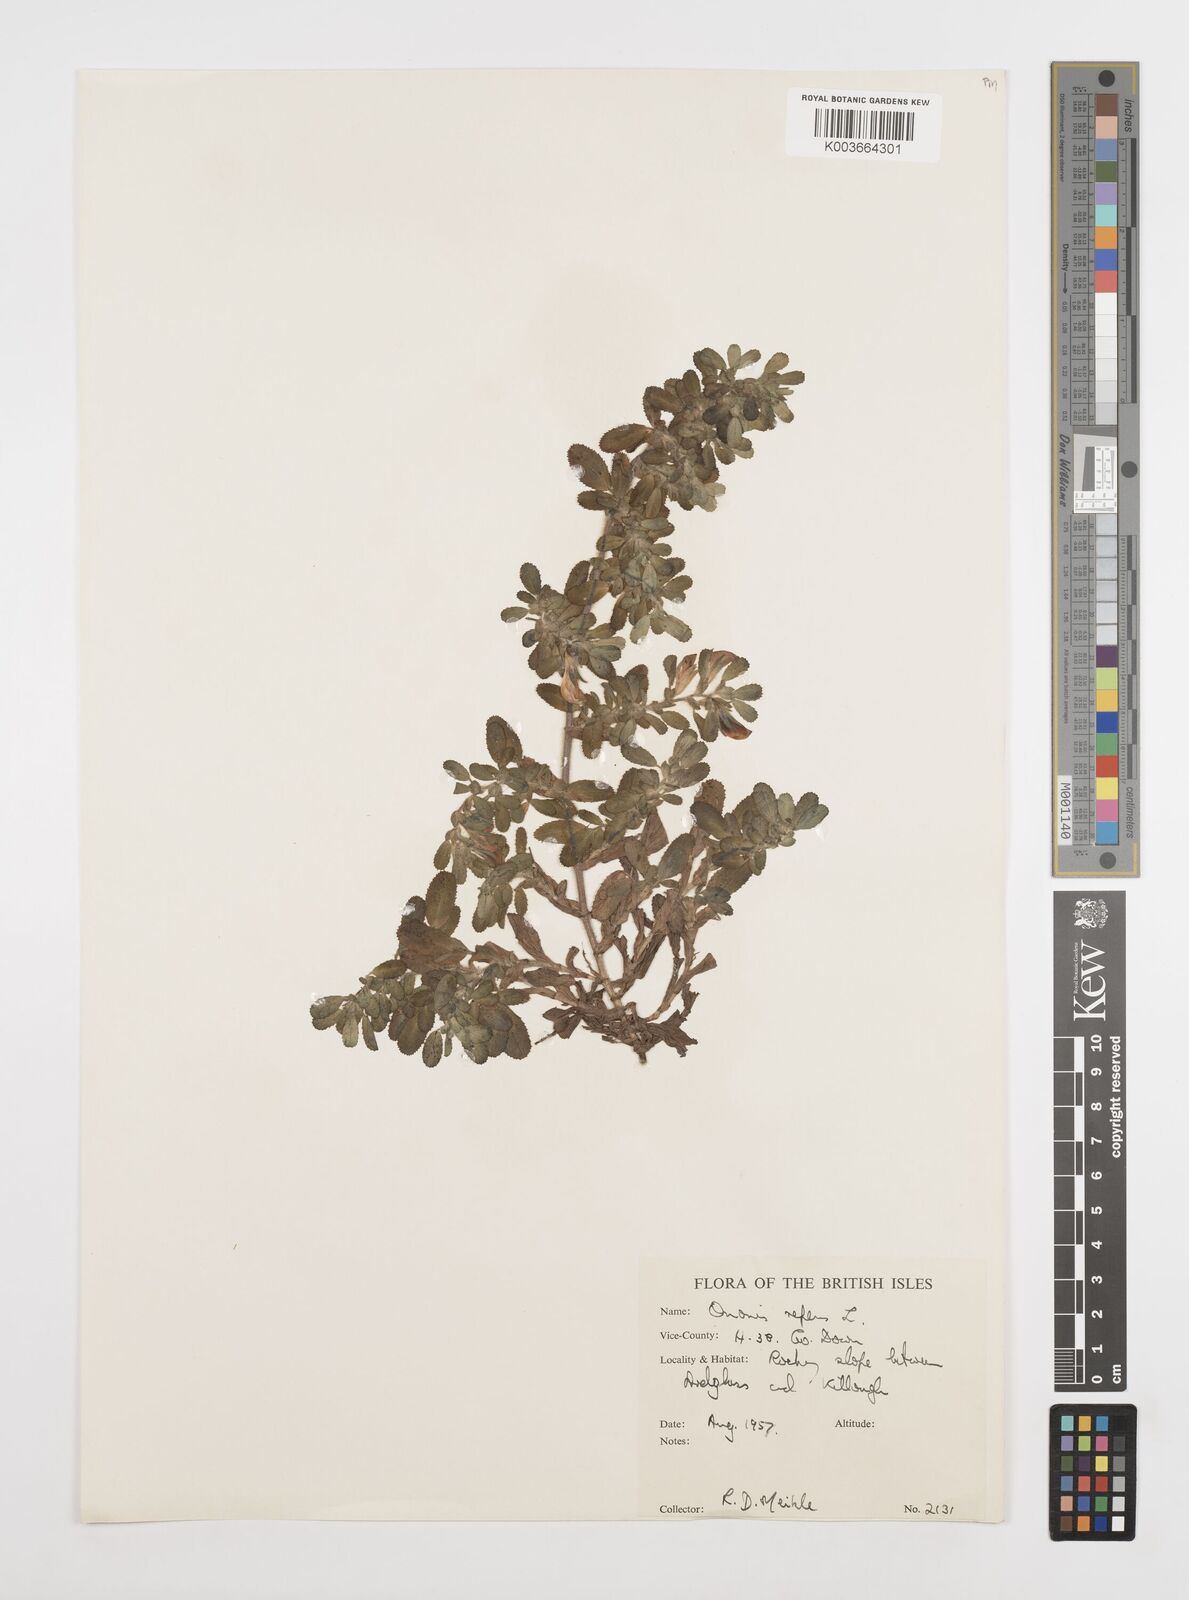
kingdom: Plantae
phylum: Tracheophyta
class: Magnoliopsida
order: Fabales
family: Fabaceae
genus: Ononis
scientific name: Ononis spinosa
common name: Spiny restharrow
